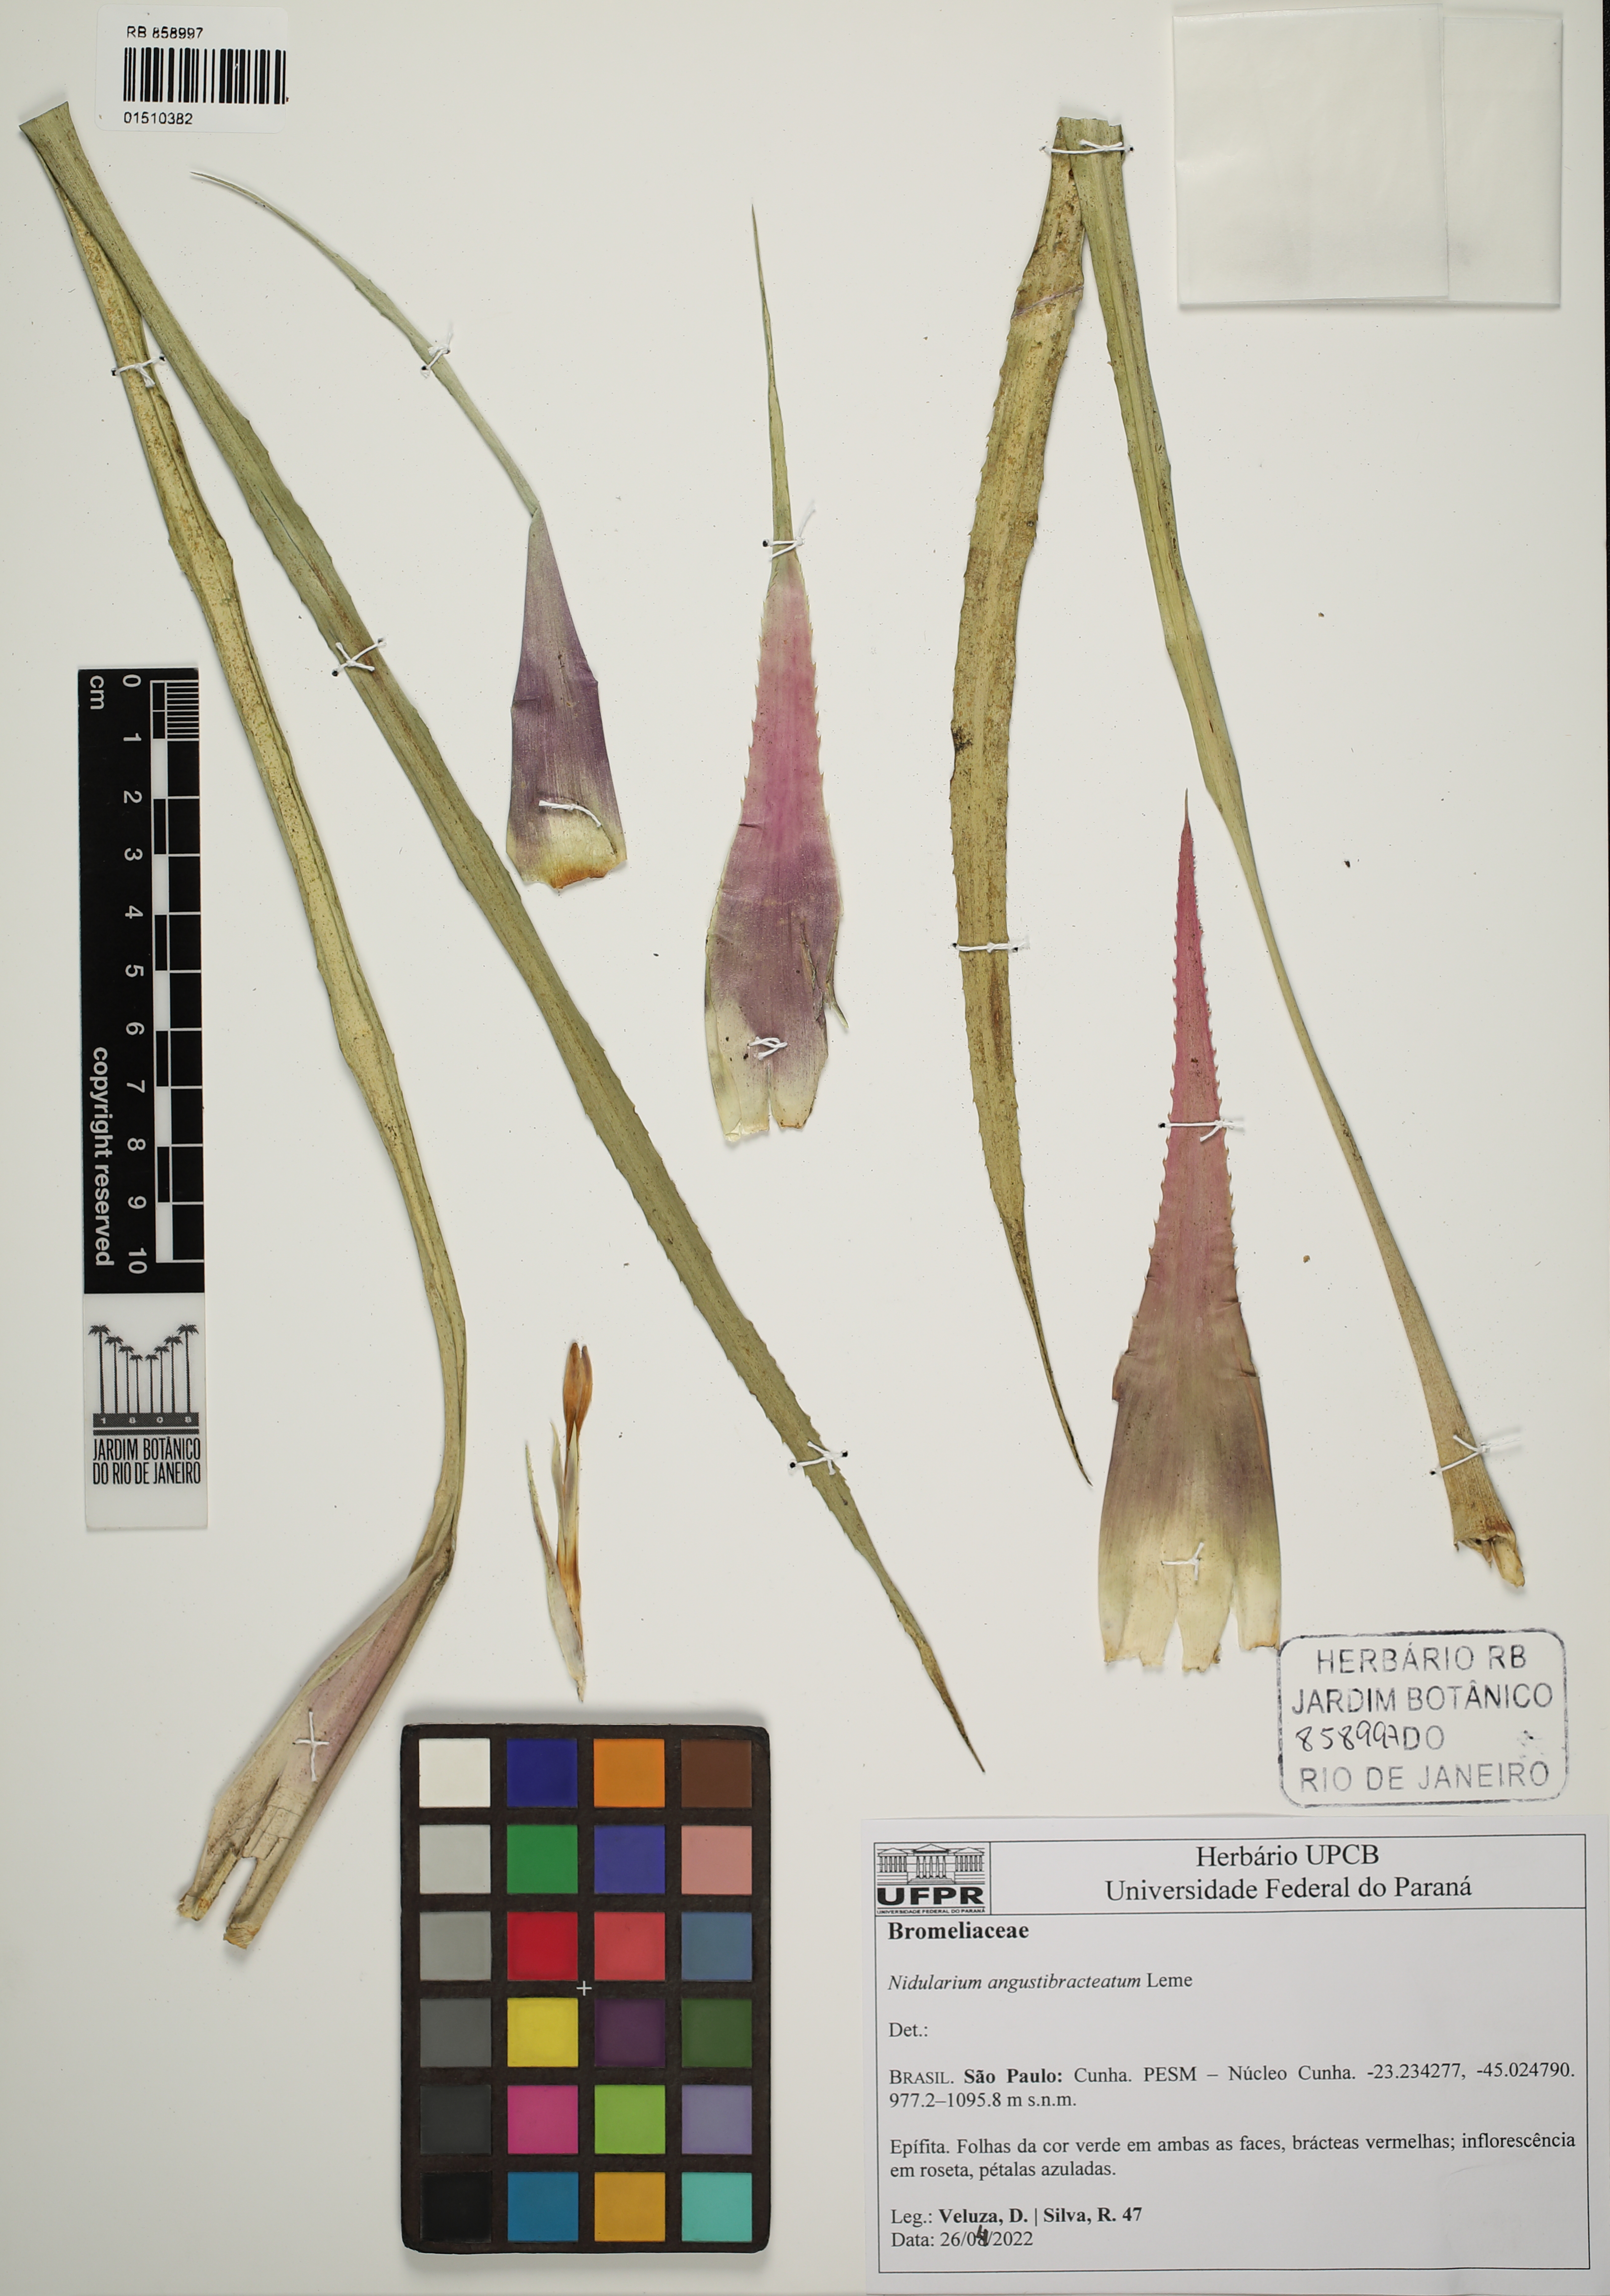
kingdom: Plantae
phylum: Tracheophyta
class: Liliopsida
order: Poales
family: Bromeliaceae
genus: Canistropsis
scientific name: Canistropsis microps
